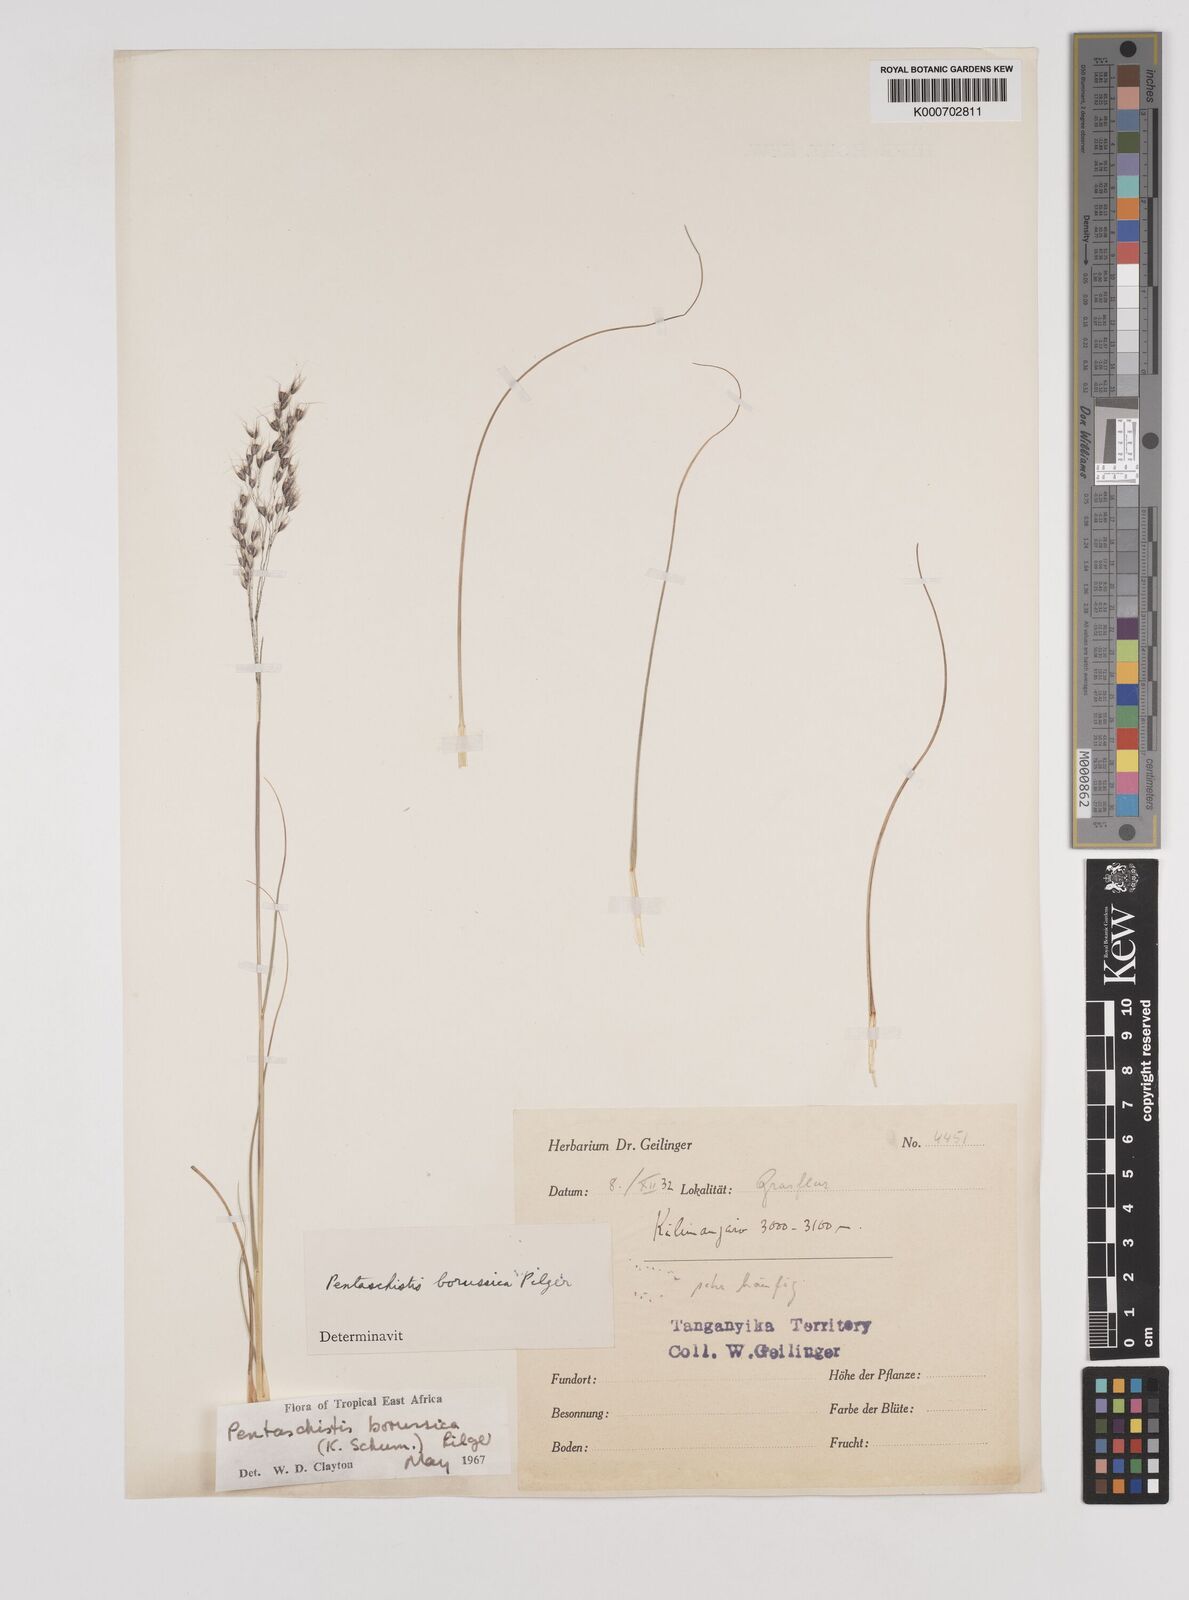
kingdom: Plantae
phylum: Tracheophyta
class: Liliopsida
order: Poales
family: Poaceae
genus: Pentameris
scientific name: Pentameris borussica
